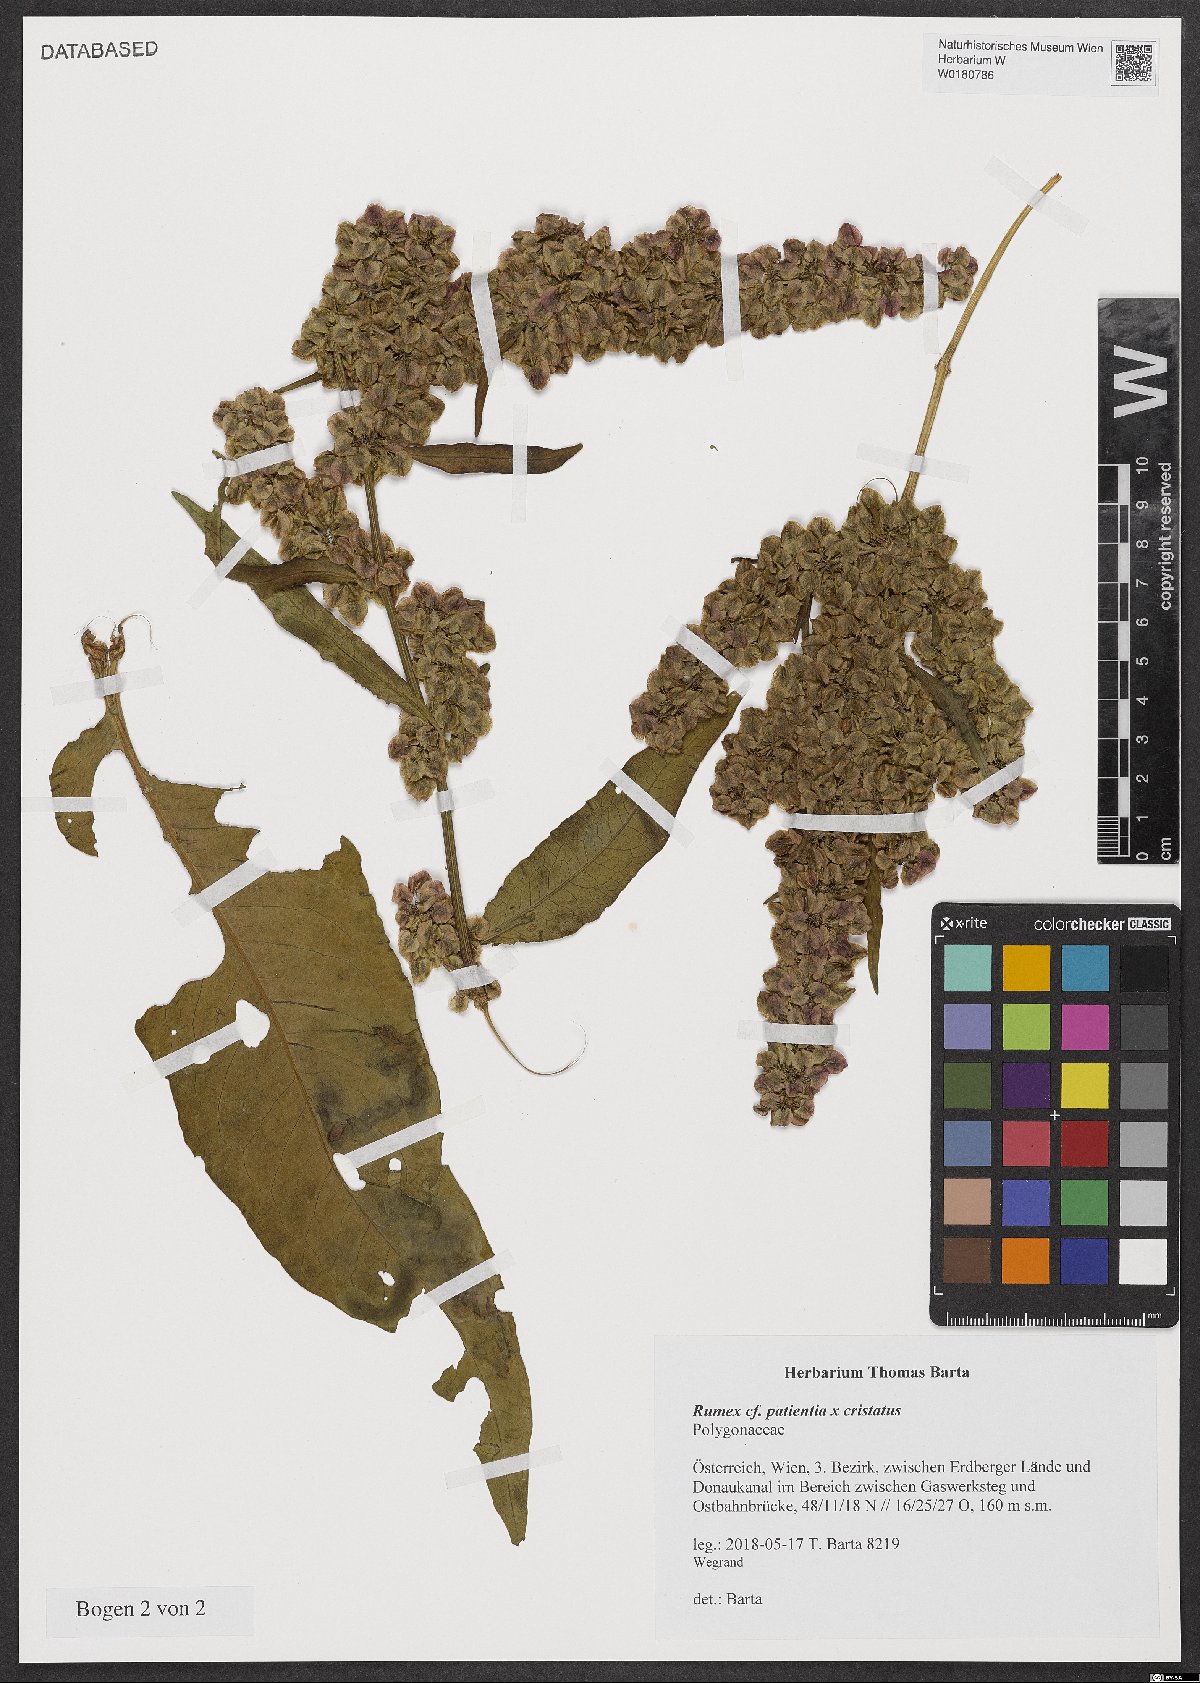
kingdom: Plantae
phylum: Tracheophyta
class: Magnoliopsida
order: Caryophyllales
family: Polygonaceae
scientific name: Polygonaceae
